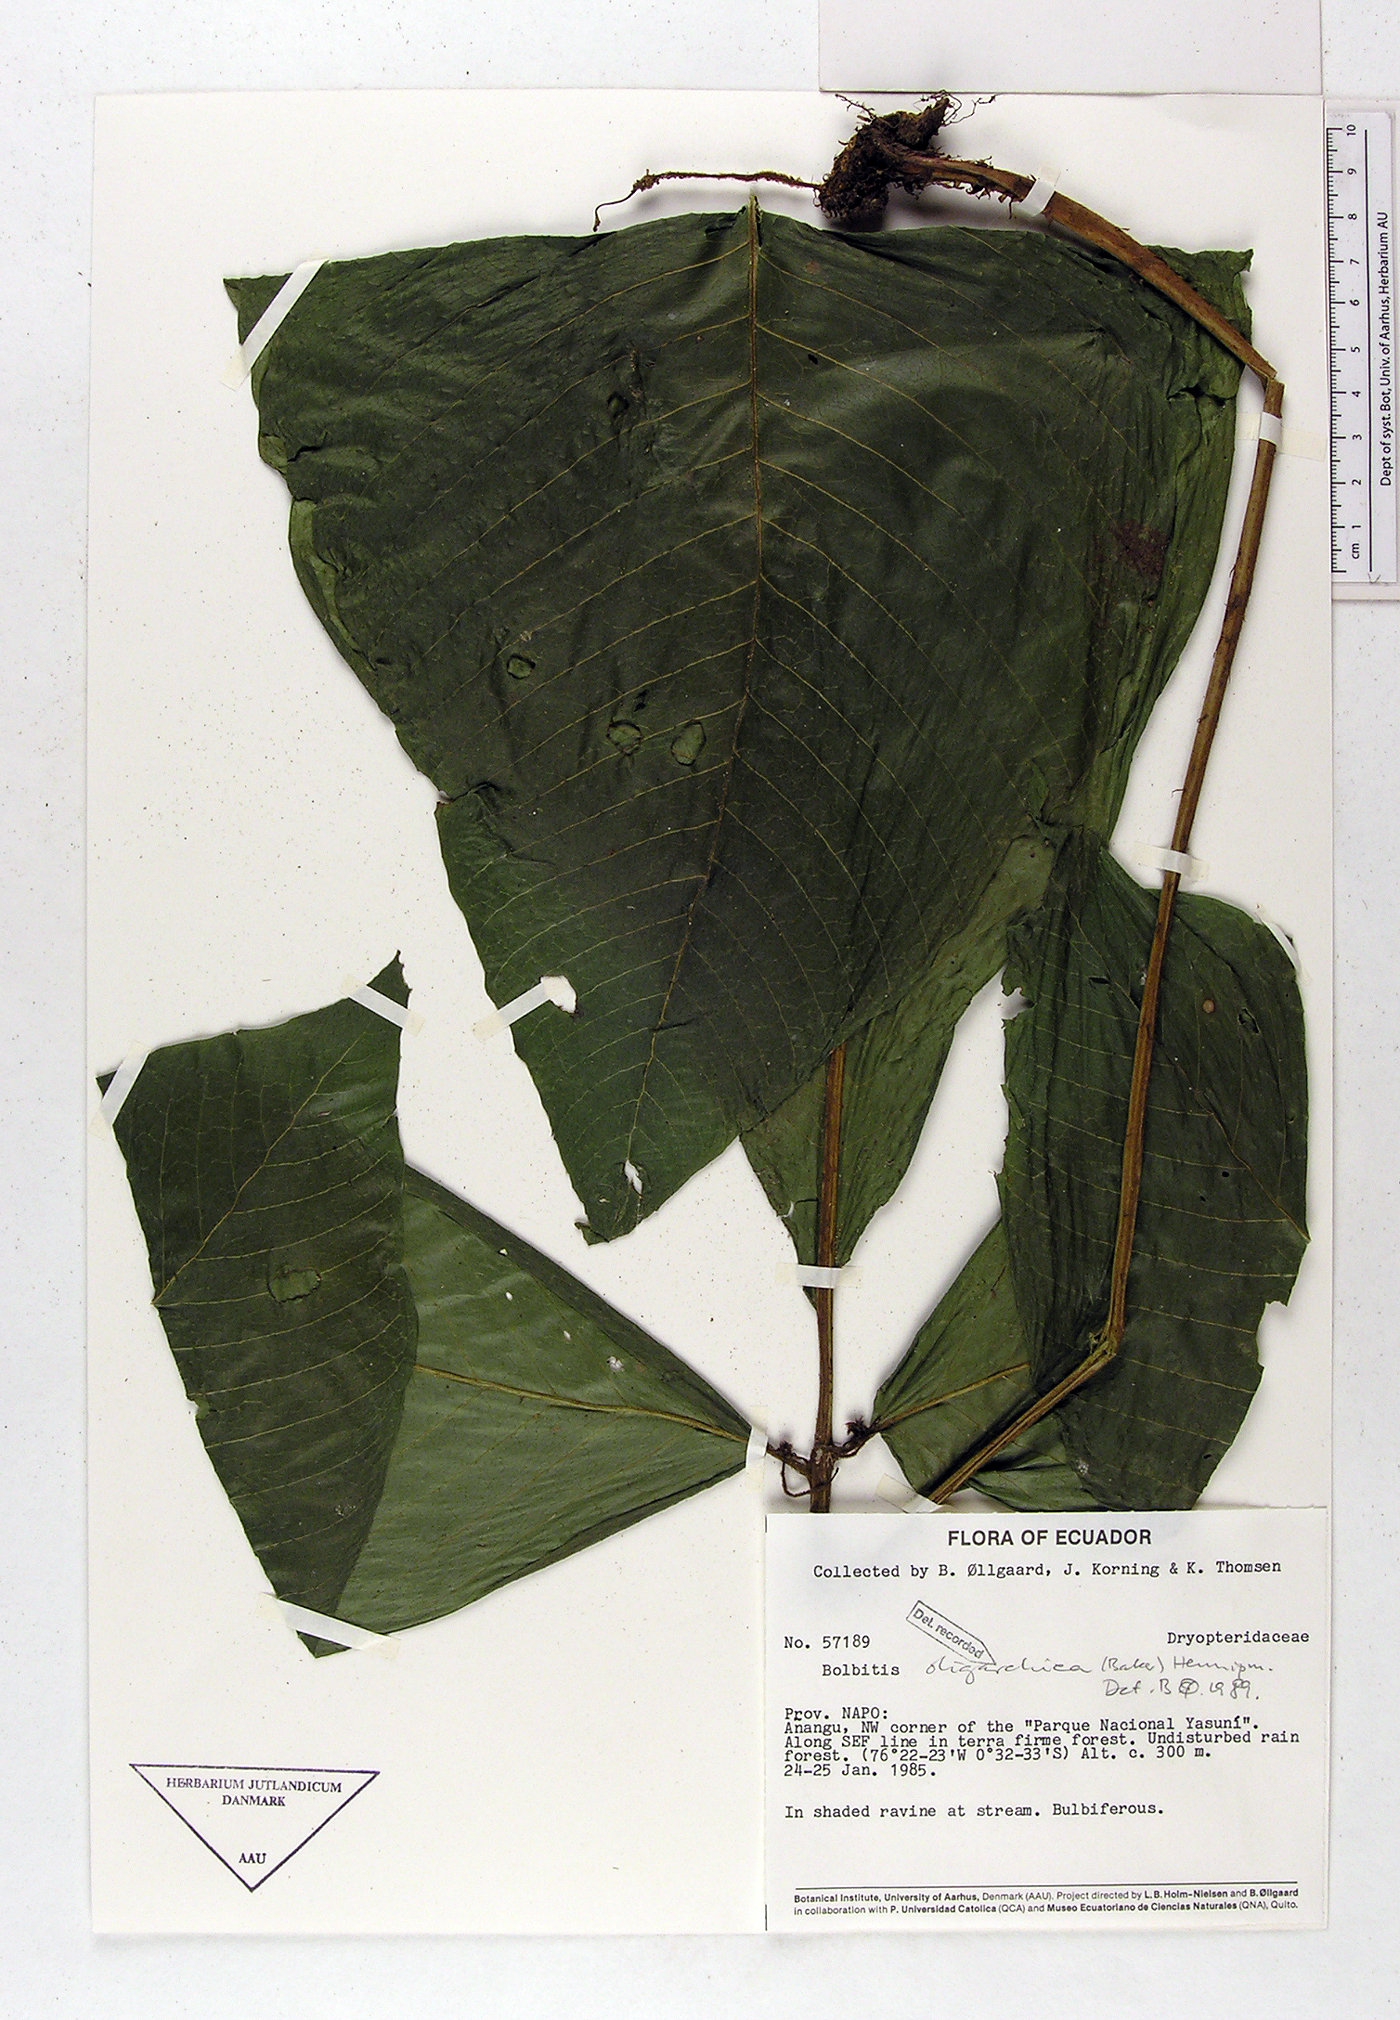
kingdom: Plantae
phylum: Tracheophyta
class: Polypodiopsida
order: Polypodiales
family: Dryopteridaceae
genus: Mickelia
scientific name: Mickelia oligarchica
